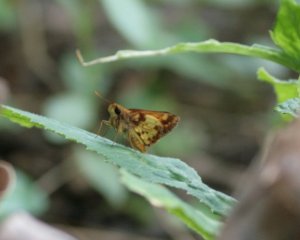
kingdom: Animalia
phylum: Arthropoda
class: Insecta
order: Lepidoptera
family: Hesperiidae
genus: Lon
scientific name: Lon zabulon
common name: Zabulon Skipper
